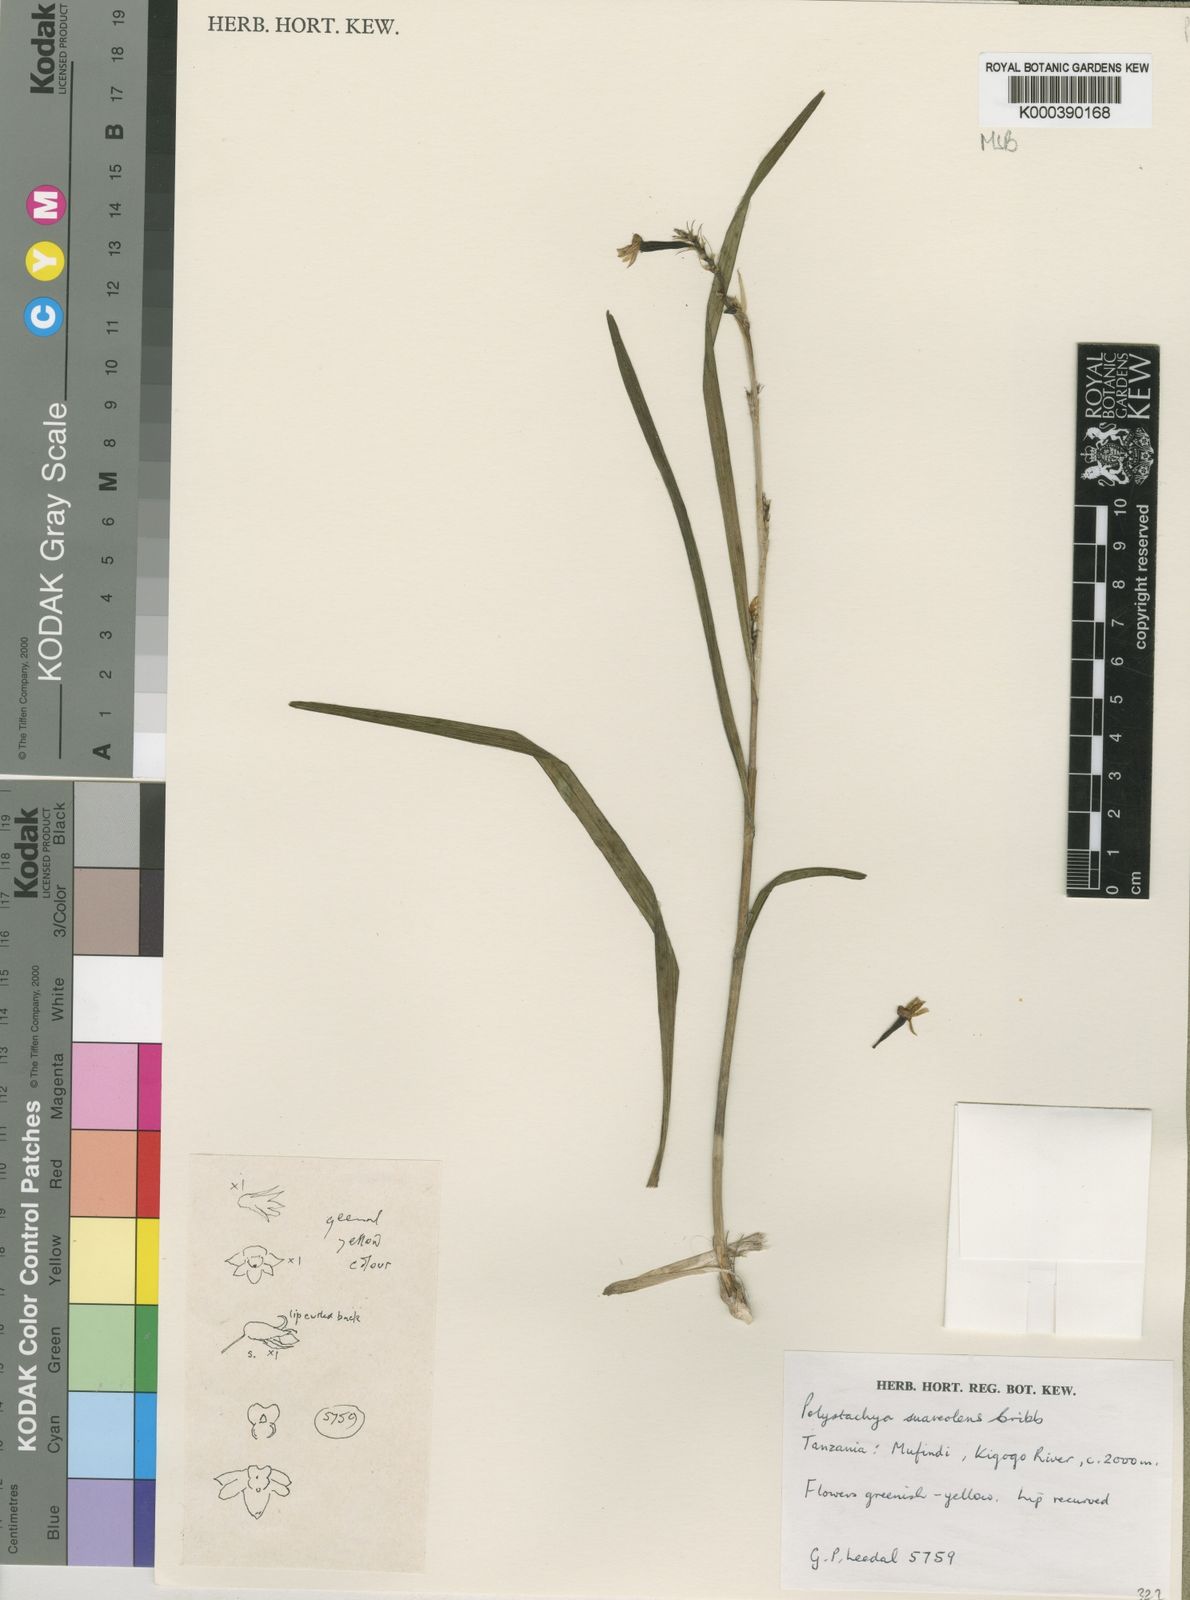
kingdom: Plantae
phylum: Tracheophyta
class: Liliopsida
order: Asparagales
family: Orchidaceae
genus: Polystachya
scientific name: Polystachya suaveolens
